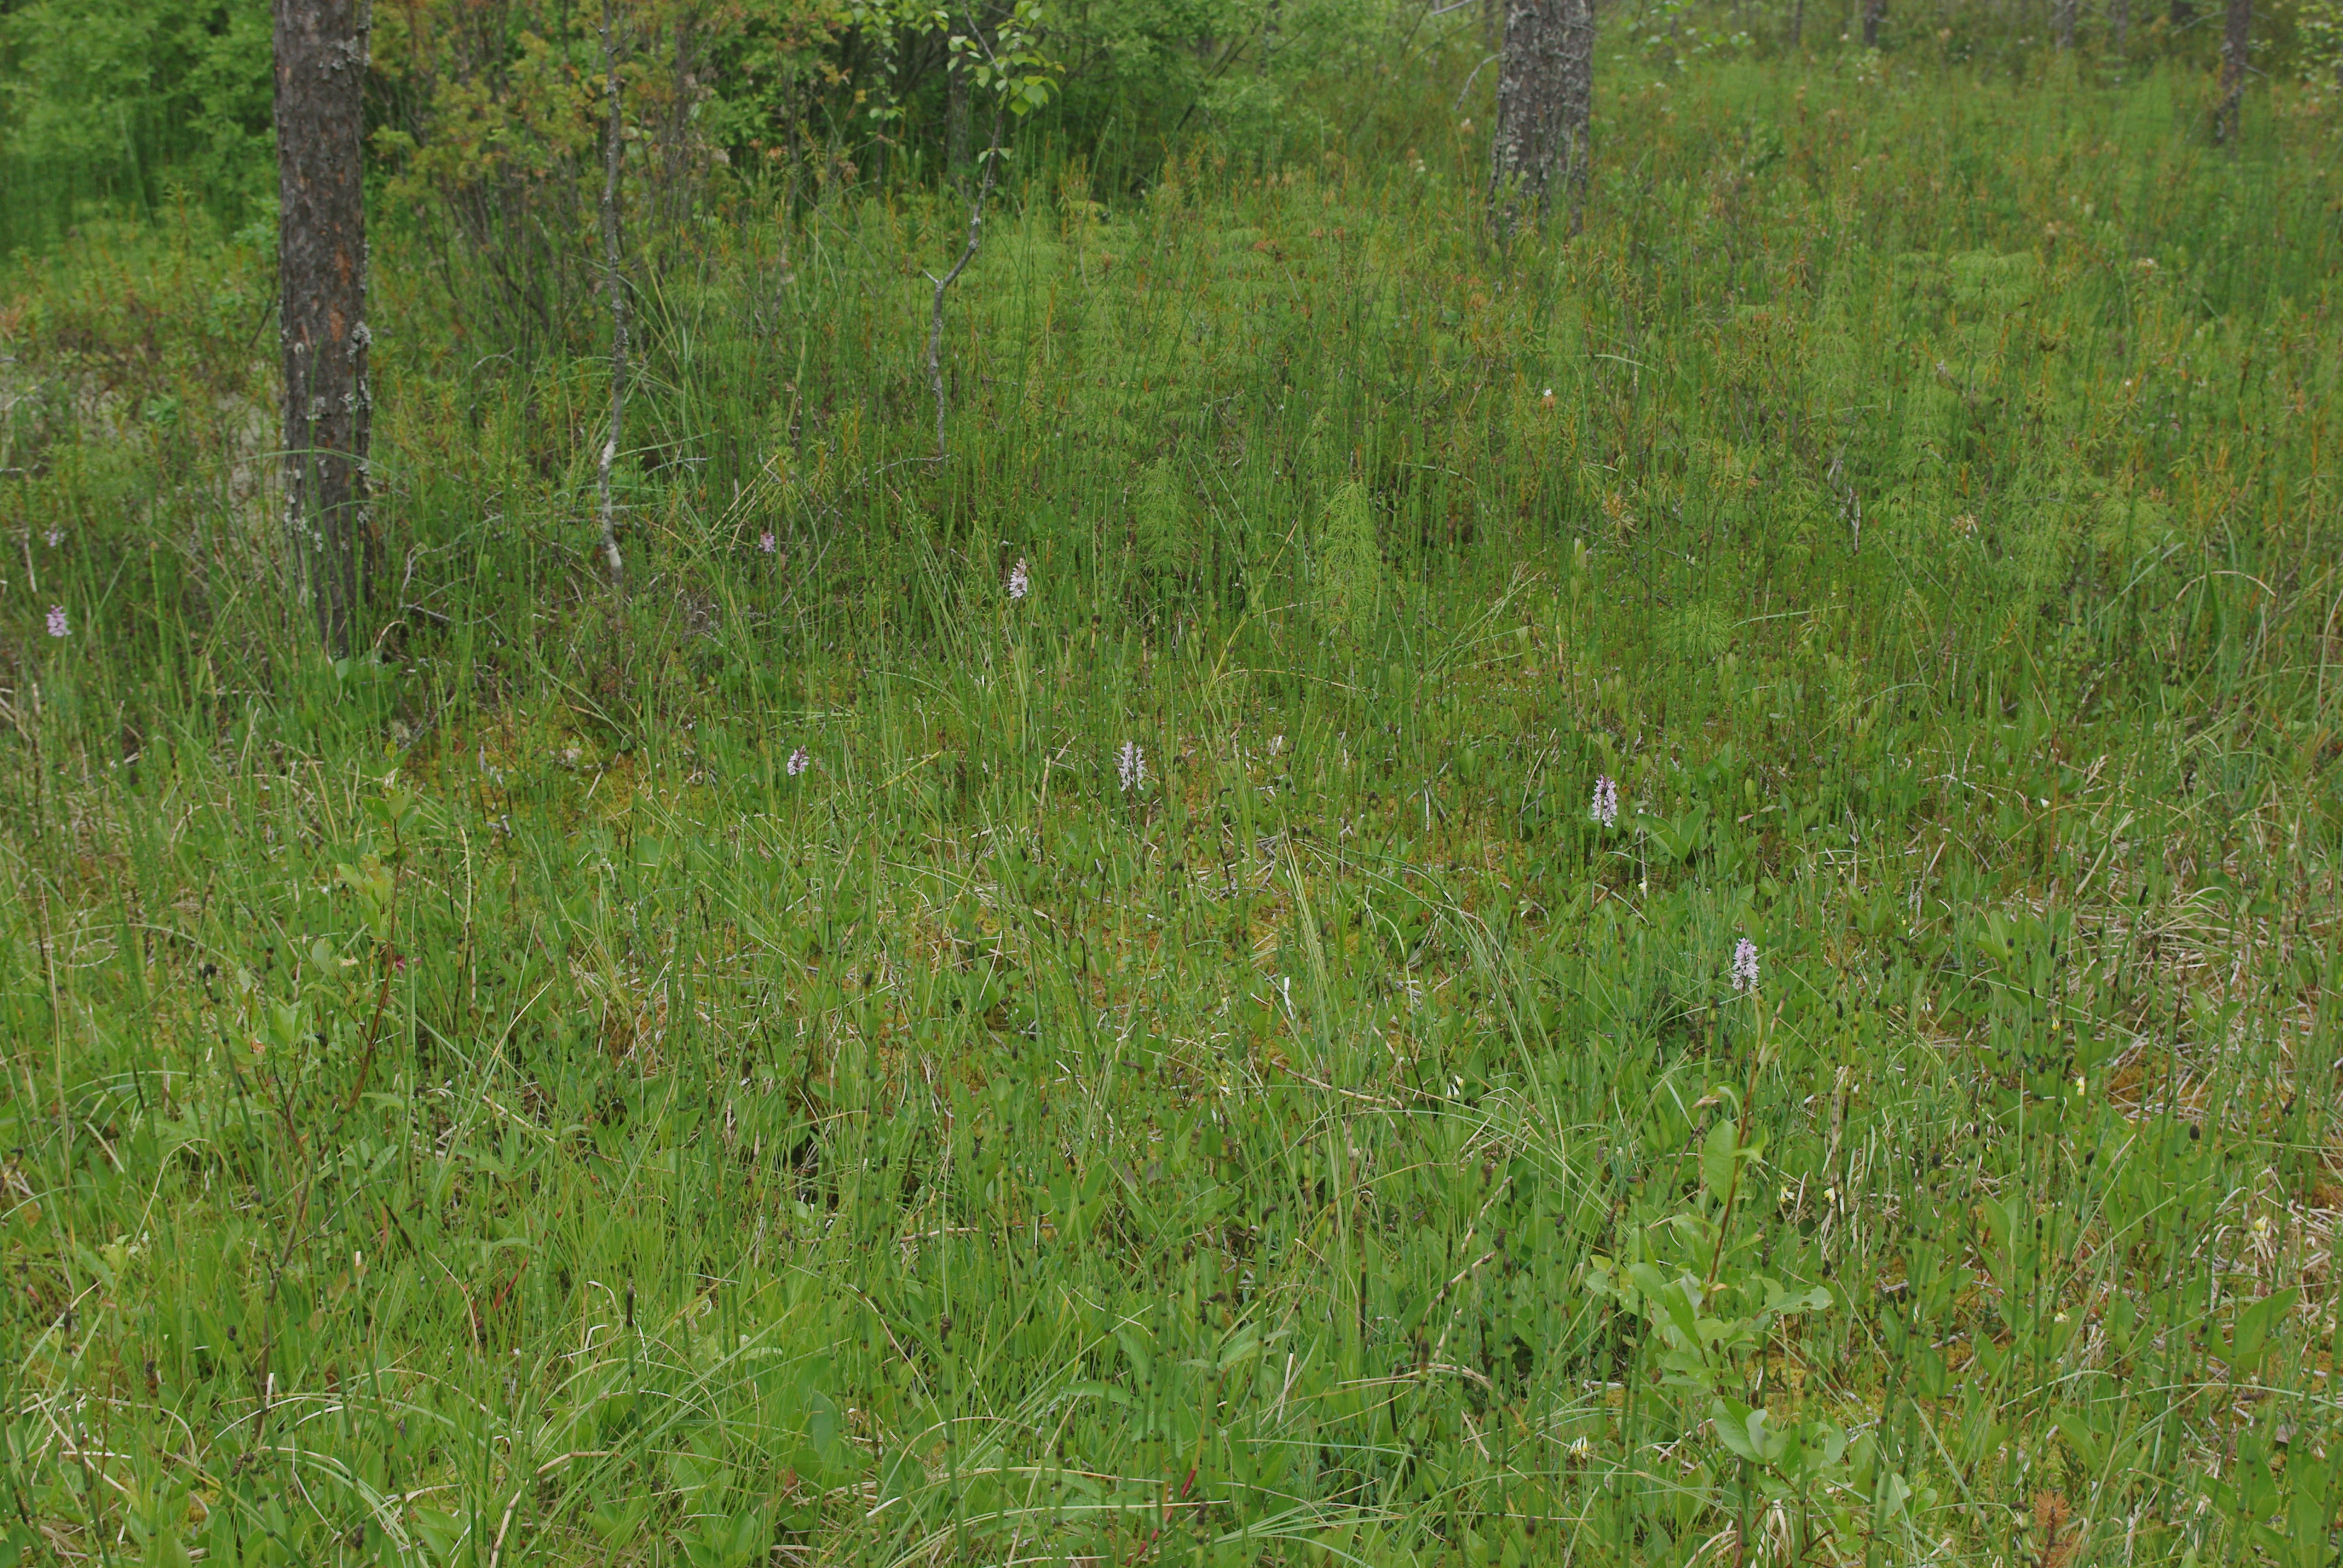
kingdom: Plantae
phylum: Tracheophyta
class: Liliopsida
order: Asparagales
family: Orchidaceae
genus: Dactylorhiza
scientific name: Dactylorhiza maculata
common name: Heath spotted-orchid
